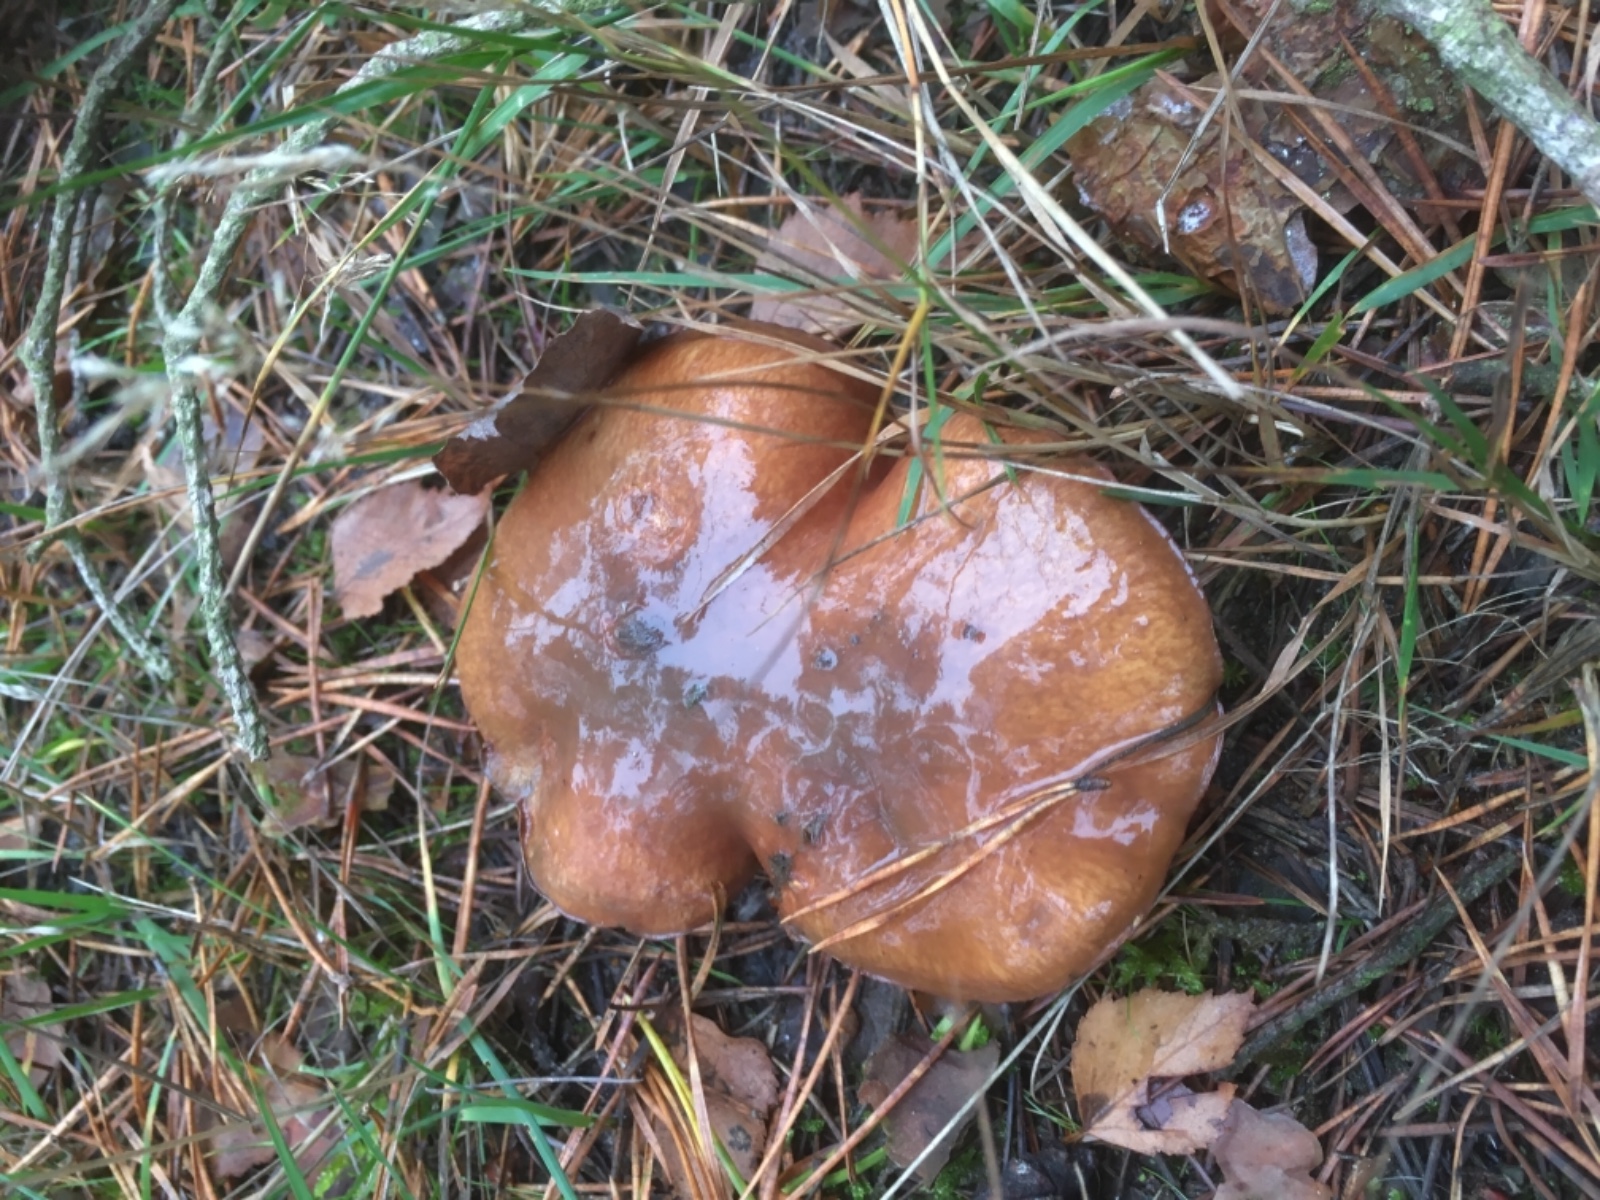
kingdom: Fungi
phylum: Basidiomycota
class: Agaricomycetes
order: Boletales
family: Suillaceae
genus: Suillus
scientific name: Suillus luteus
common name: brungul slimrørhat
